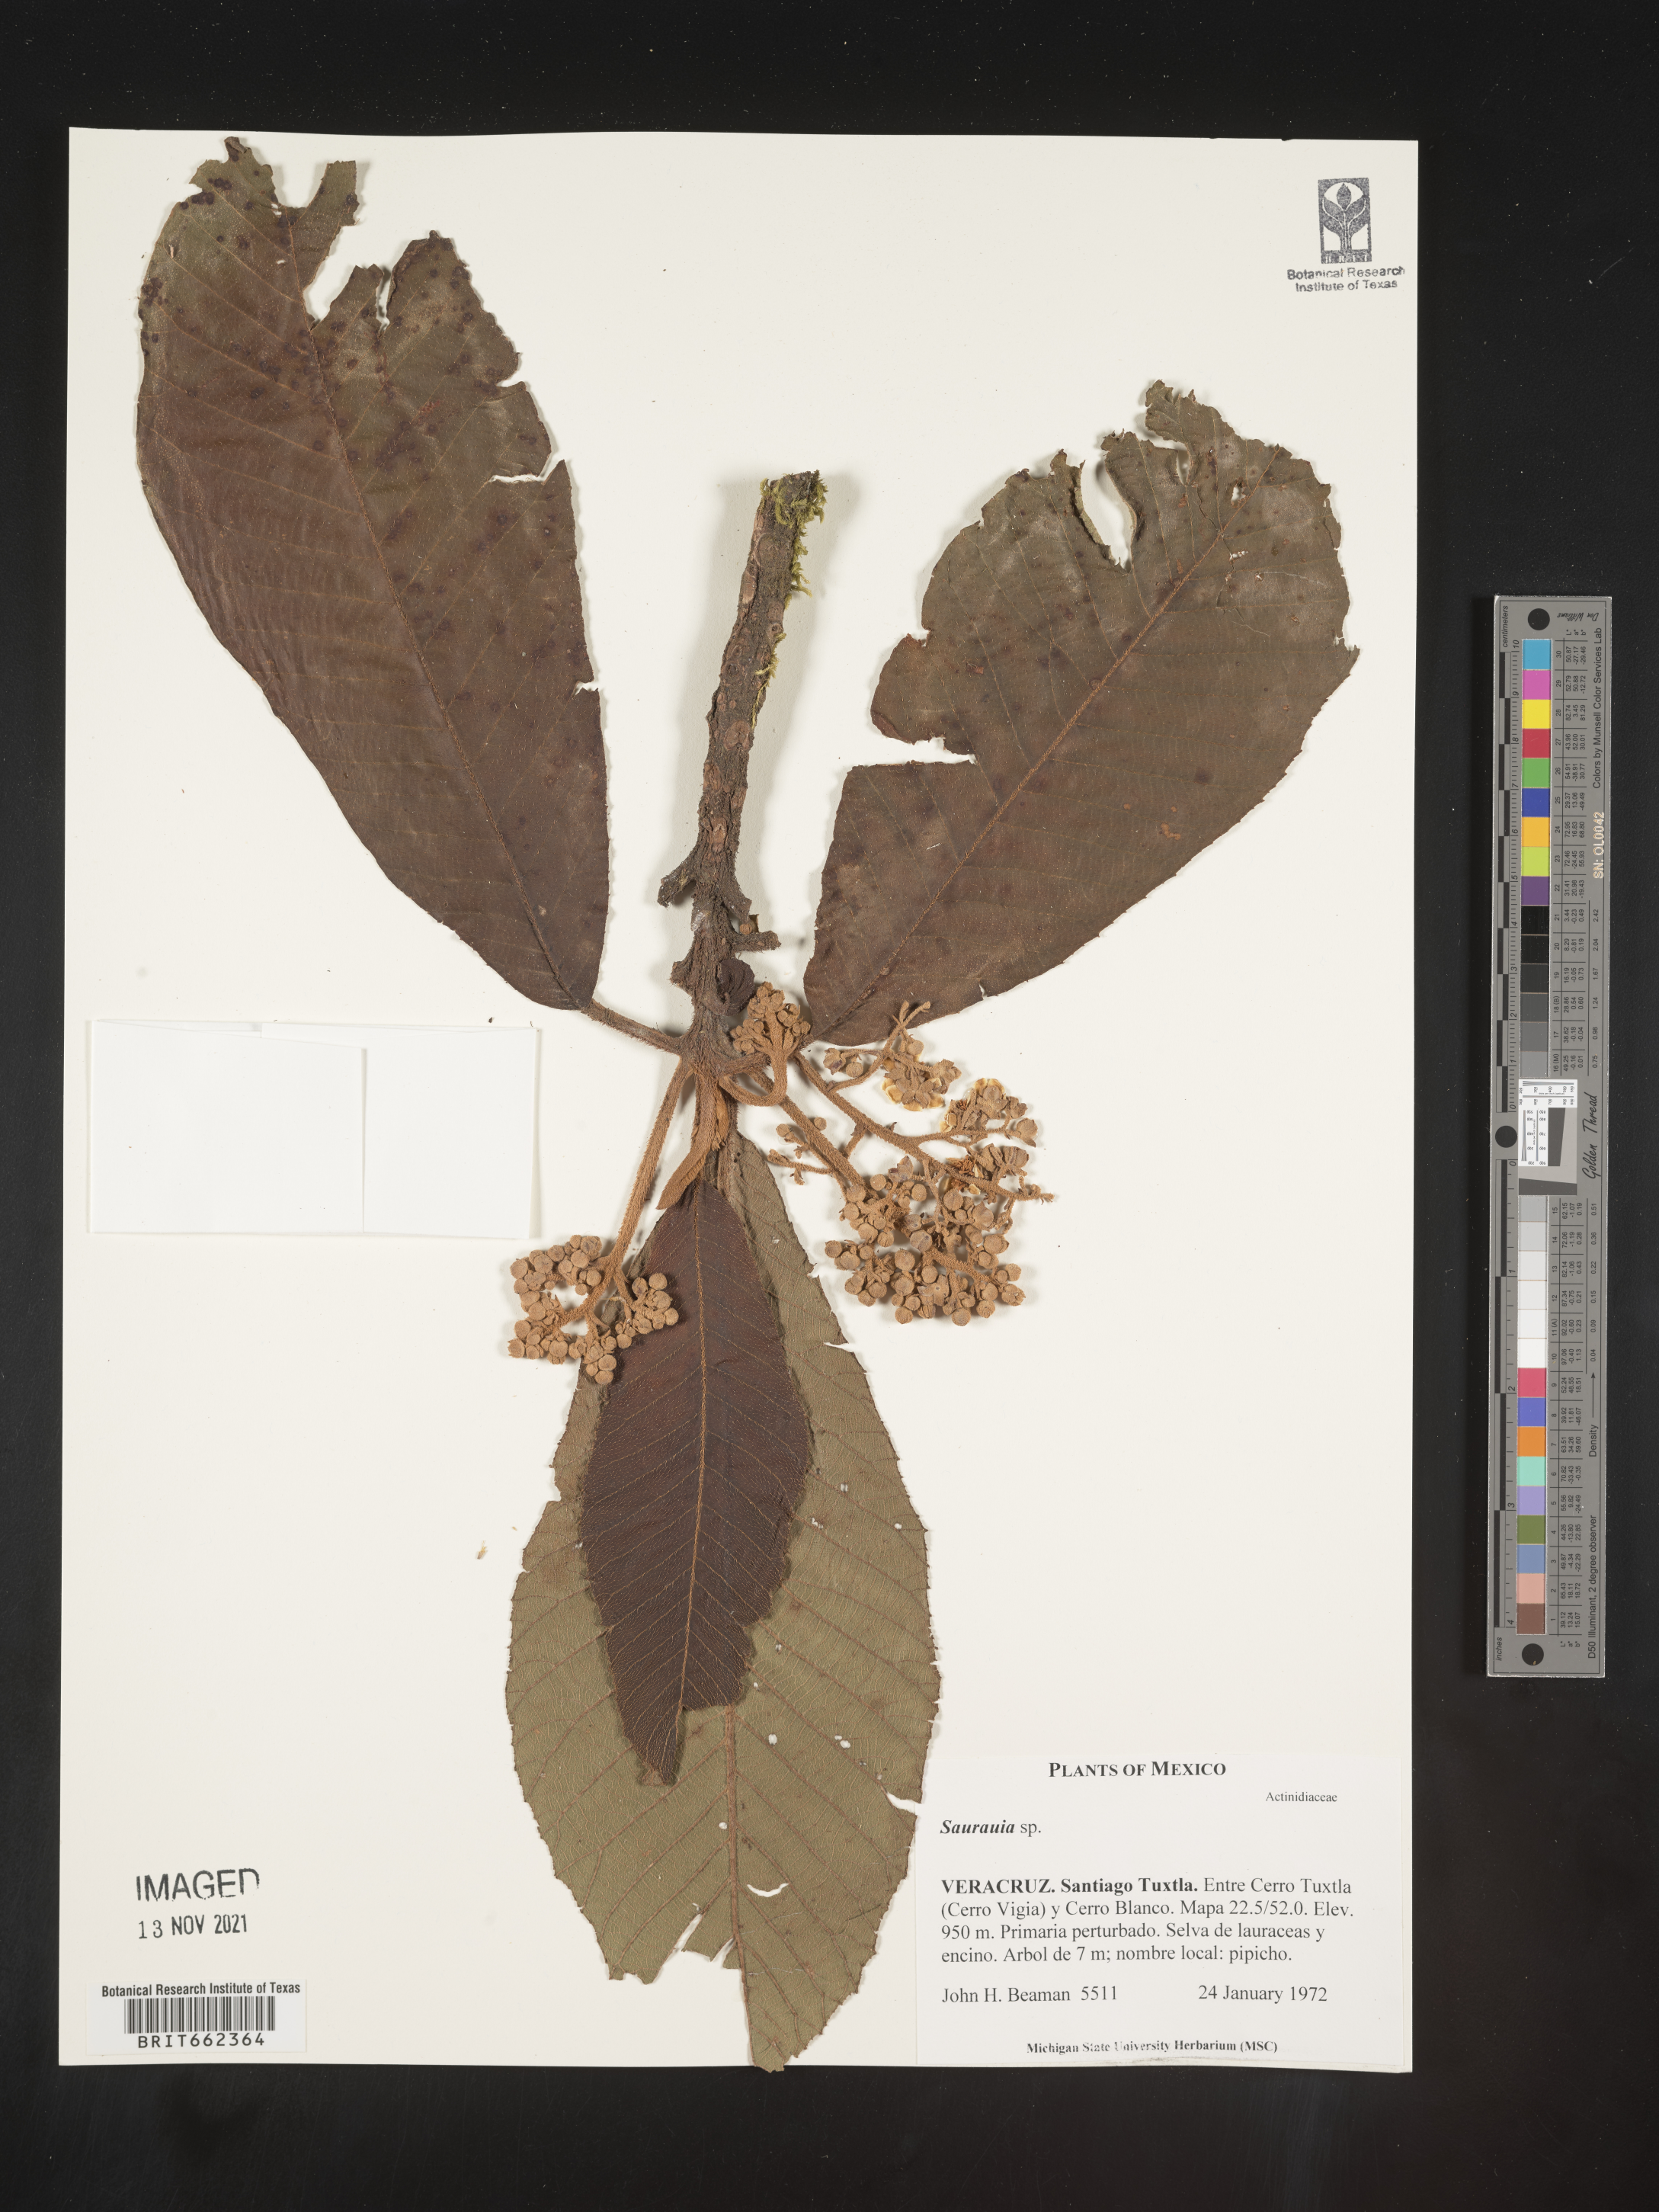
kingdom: Plantae
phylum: Tracheophyta
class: Magnoliopsida
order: Ericales
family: Actinidiaceae
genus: Saurauia
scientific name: Saurauia
